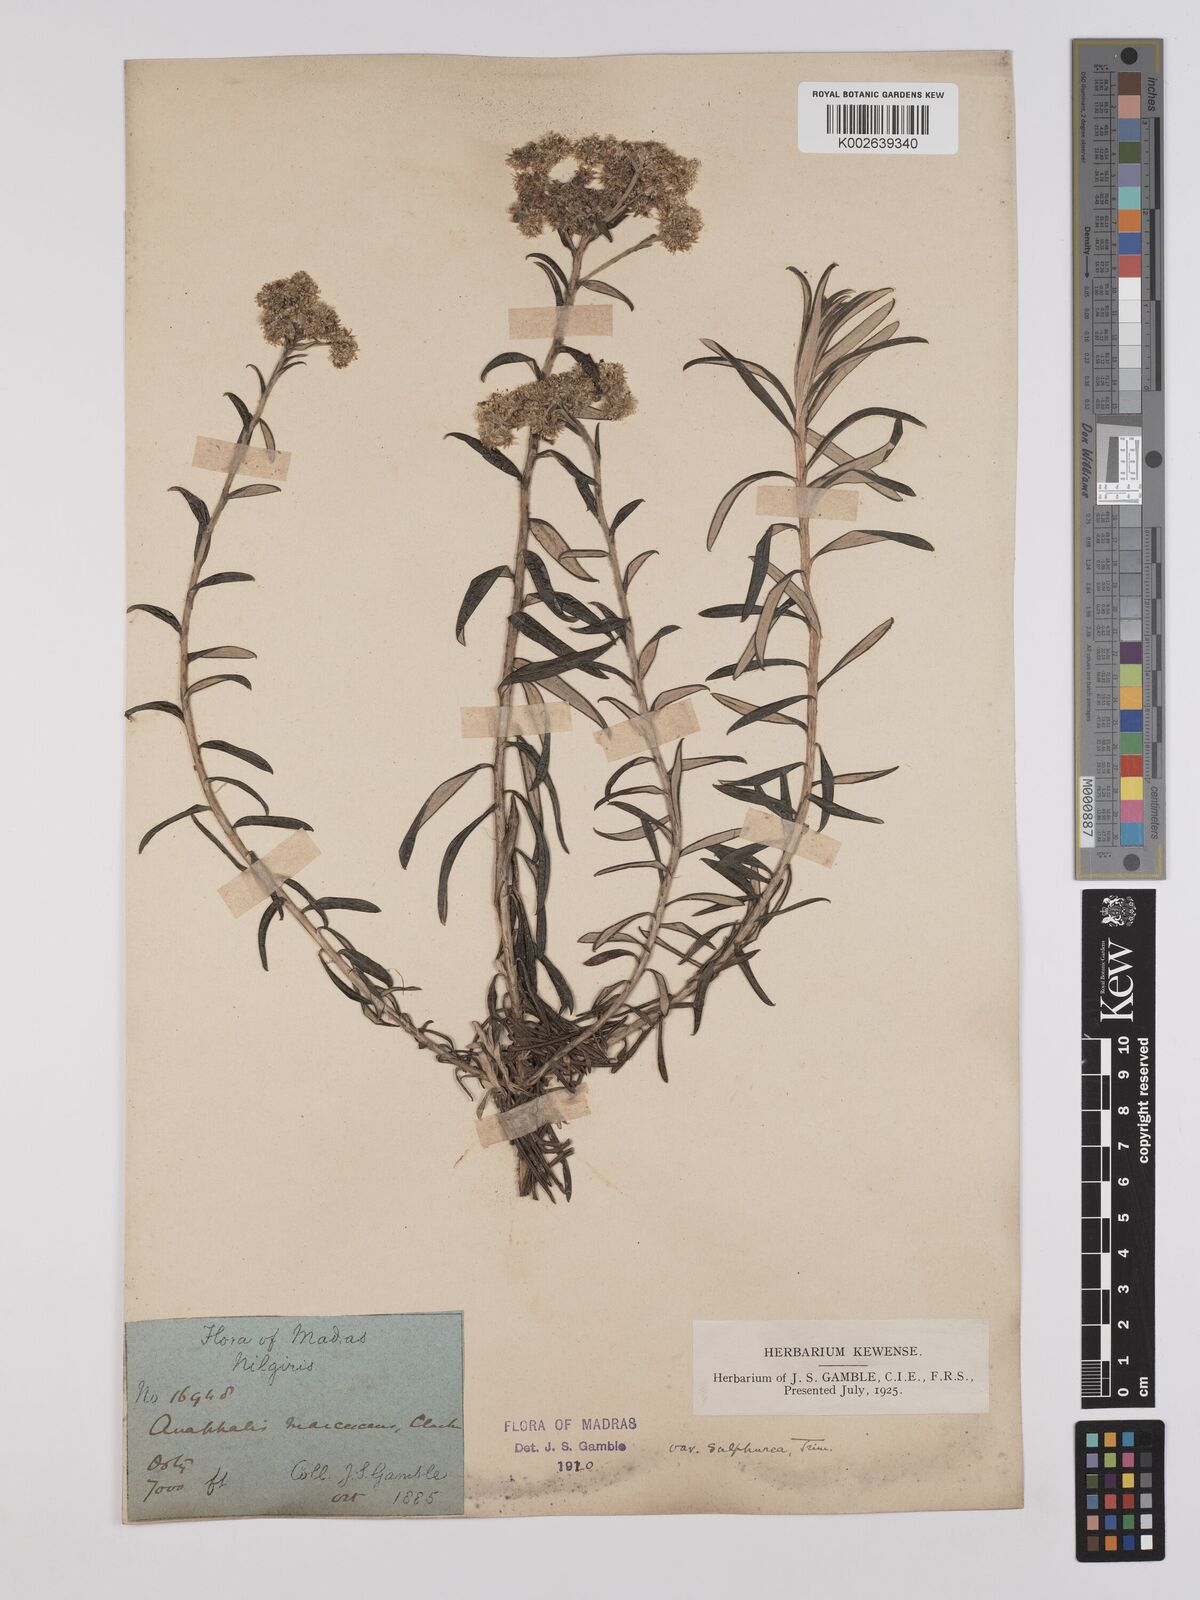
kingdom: Plantae
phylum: Tracheophyta
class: Magnoliopsida
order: Asterales
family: Asteraceae
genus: Anaphalis
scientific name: Anaphalis marcescens
